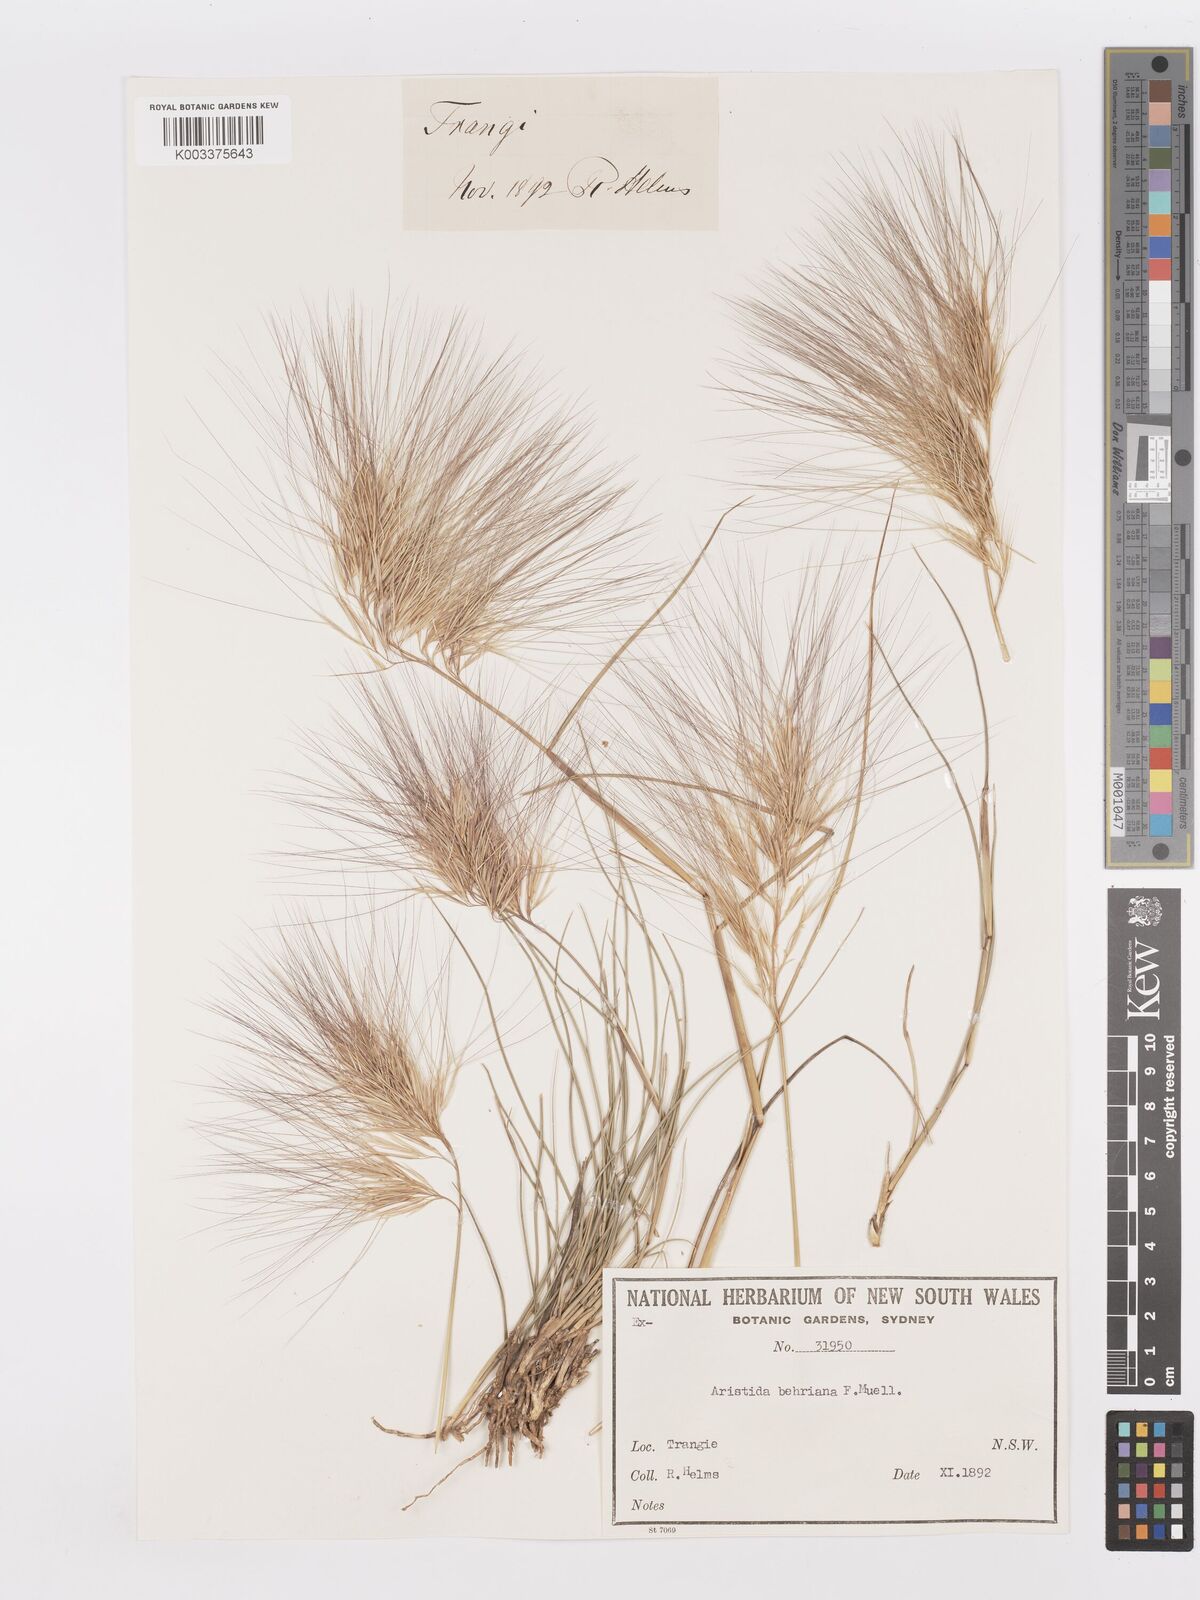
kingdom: Plantae
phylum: Tracheophyta
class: Liliopsida
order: Poales
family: Poaceae
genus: Aristida
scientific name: Aristida behriana
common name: Long-awn wire grass
